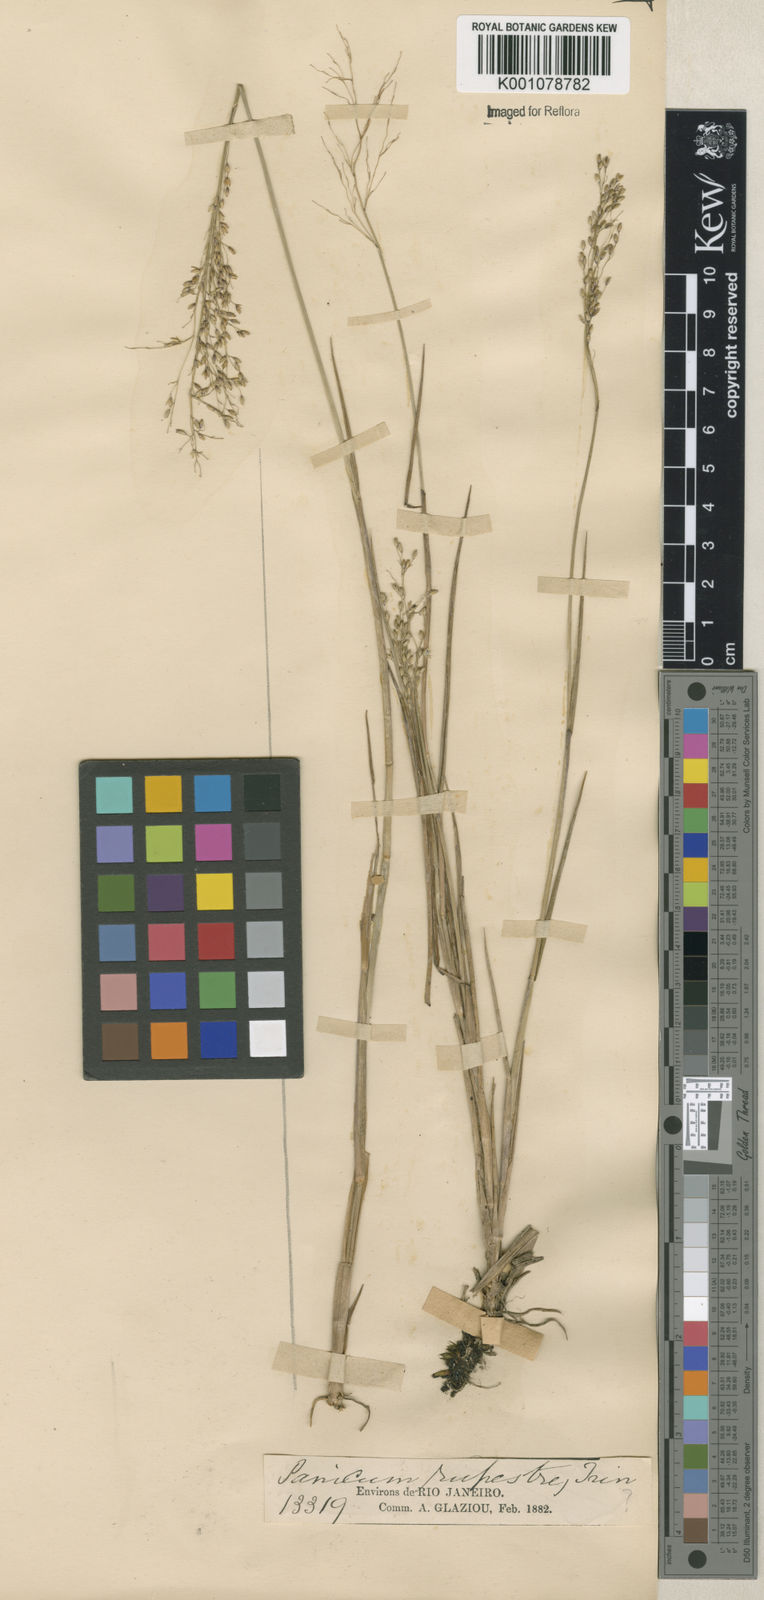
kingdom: Plantae
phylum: Tracheophyta
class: Liliopsida
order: Poales
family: Poaceae
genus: Panicum
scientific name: Panicum
